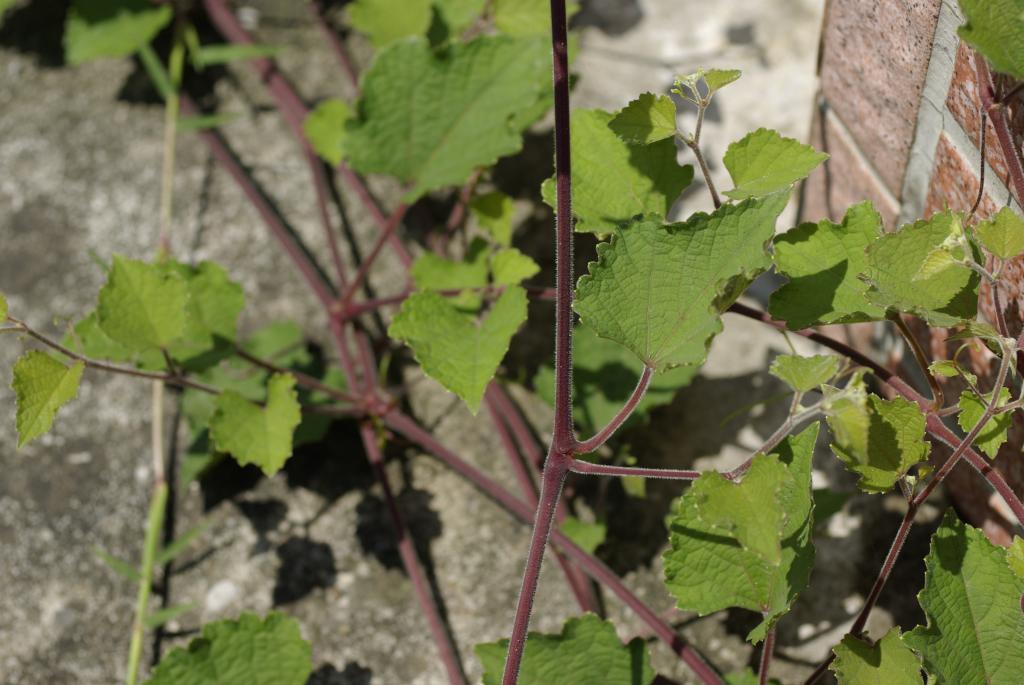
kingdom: Plantae
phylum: Tracheophyta
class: Magnoliopsida
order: Vitales
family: Vitaceae
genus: Ampelopsis
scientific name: Ampelopsis glandulosa
